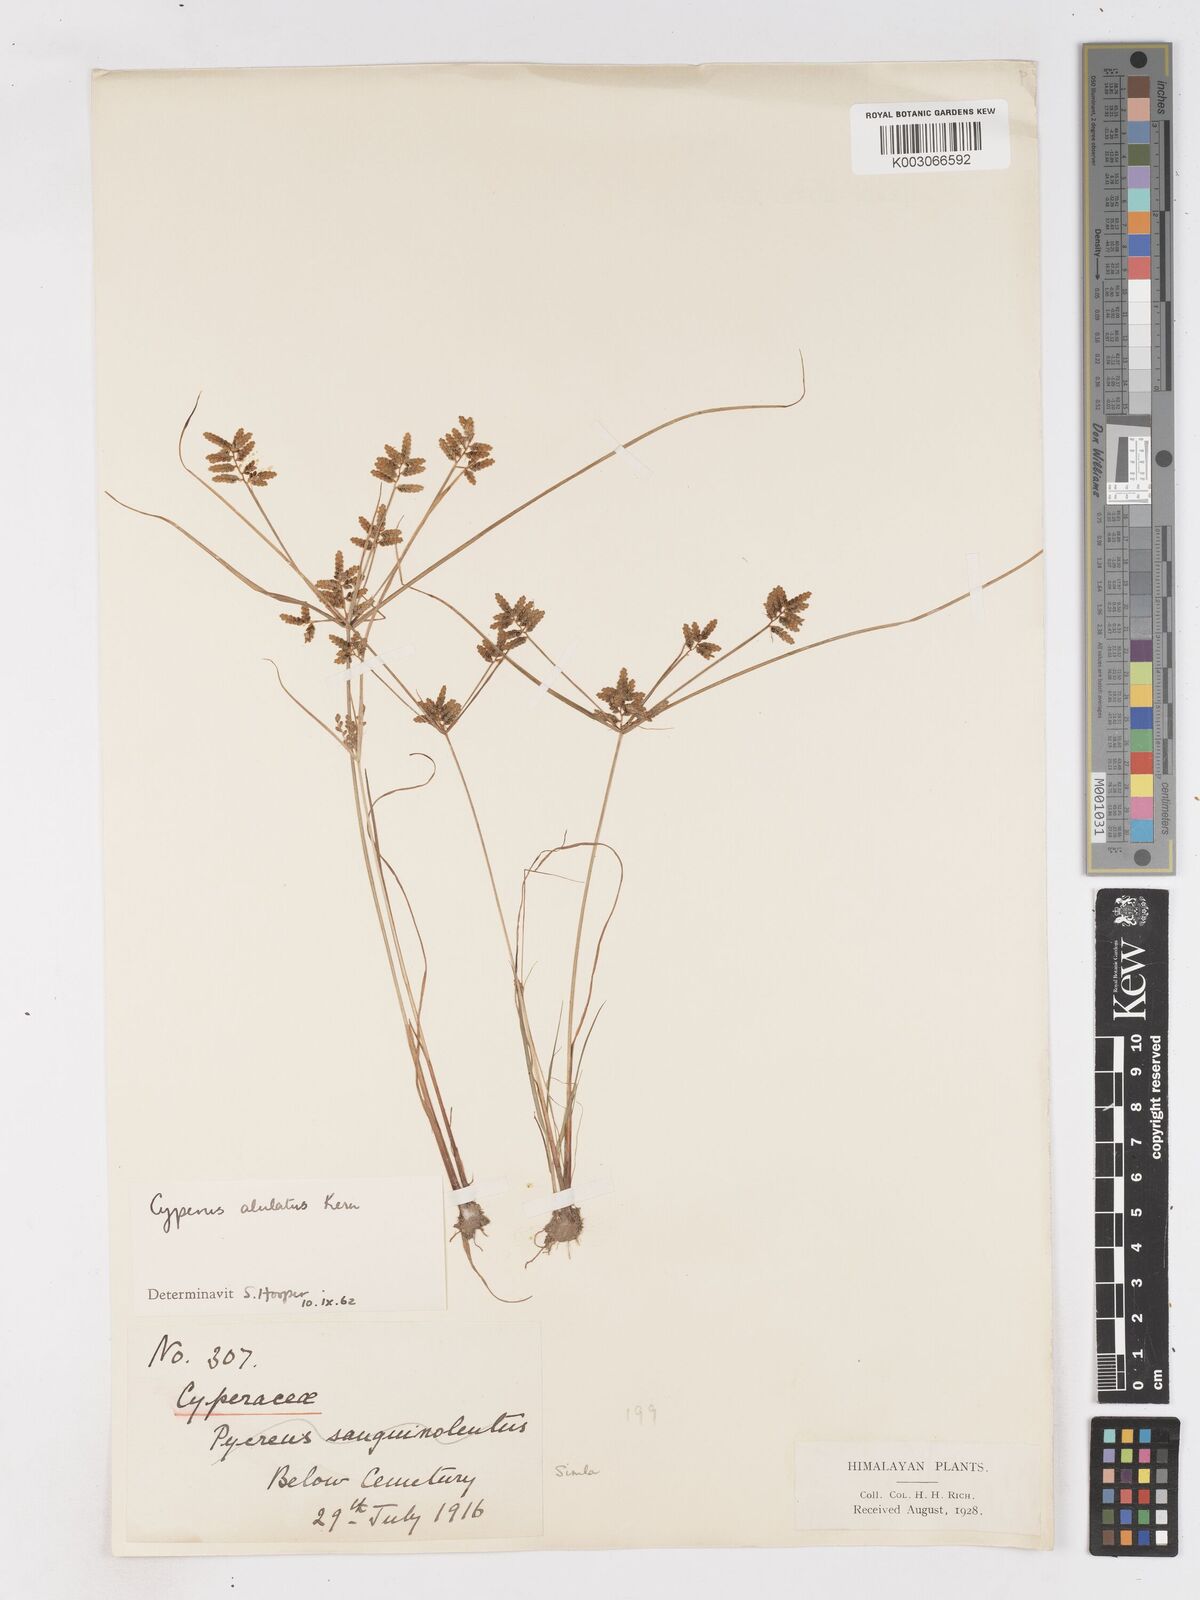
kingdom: Plantae
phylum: Tracheophyta
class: Liliopsida
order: Poales
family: Cyperaceae
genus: Cyperus
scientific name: Cyperus alulatus
